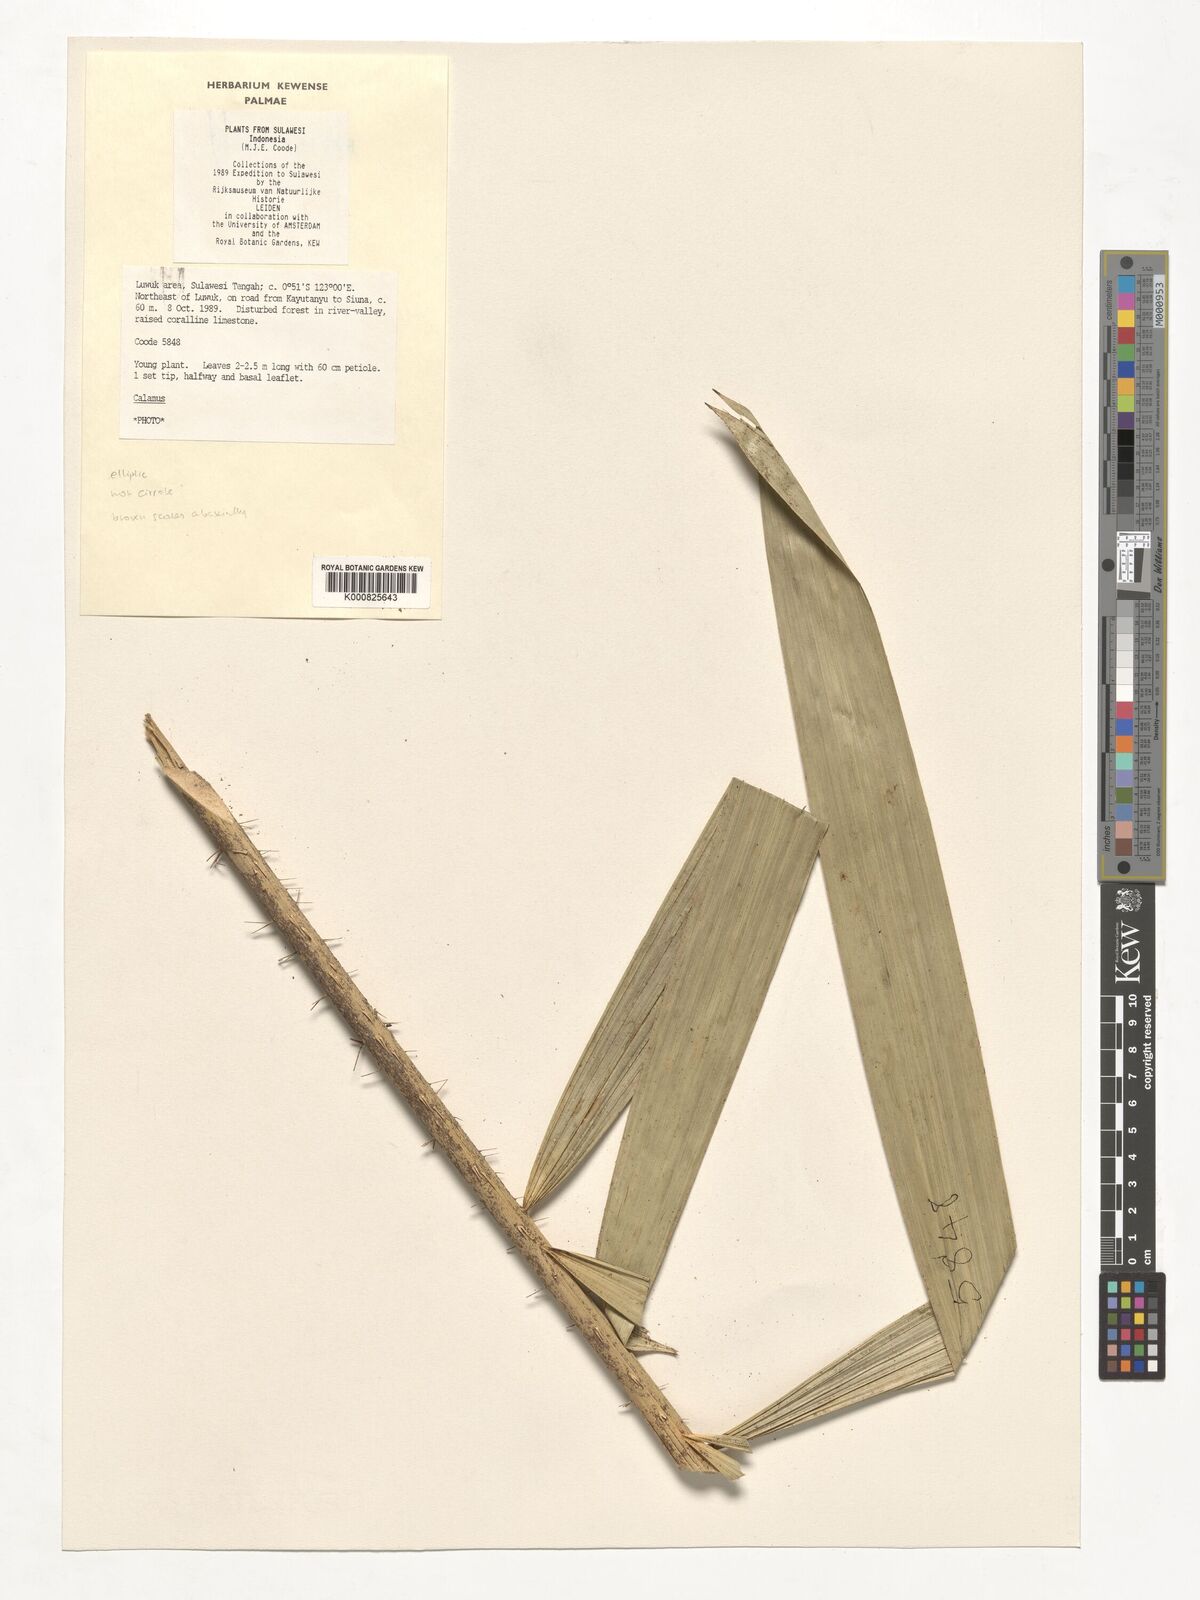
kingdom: Plantae
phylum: Tracheophyta
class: Liliopsida
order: Arecales
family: Arecaceae
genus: Calamus
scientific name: Calamus
